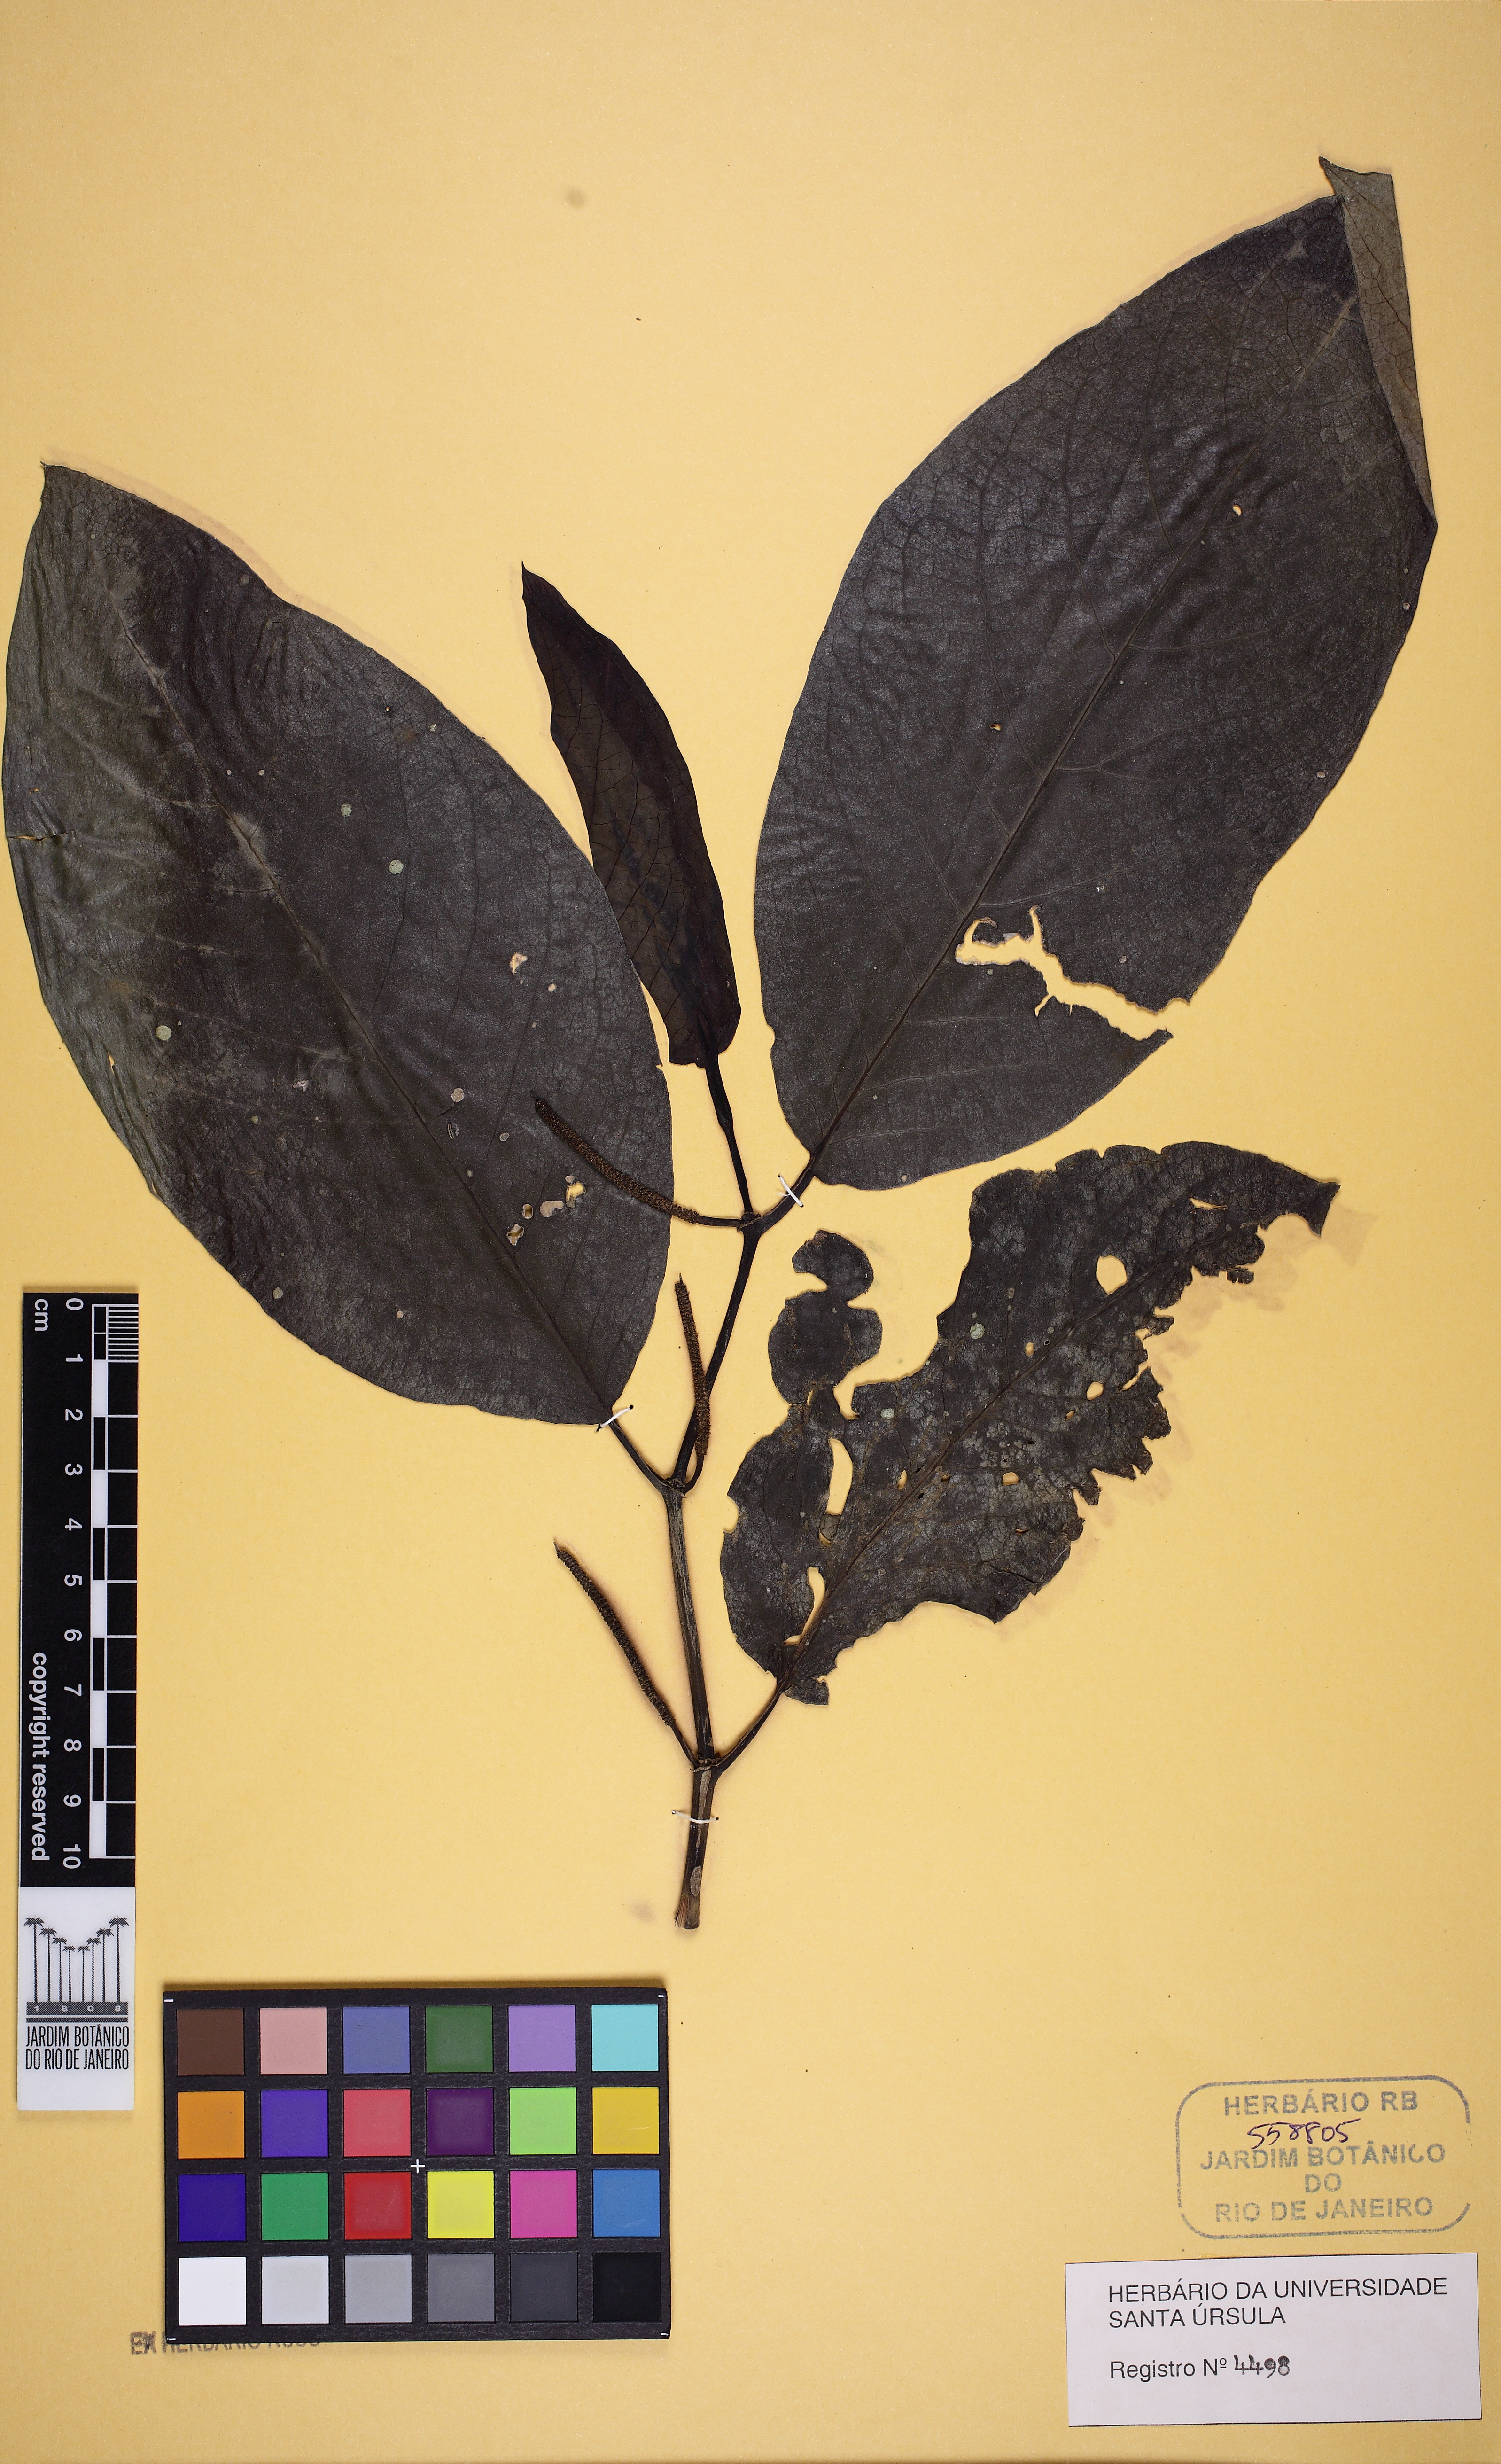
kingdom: Plantae
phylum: Tracheophyta
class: Magnoliopsida
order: Piperales
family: Piperaceae
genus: Piper
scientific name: Piper fluminense
